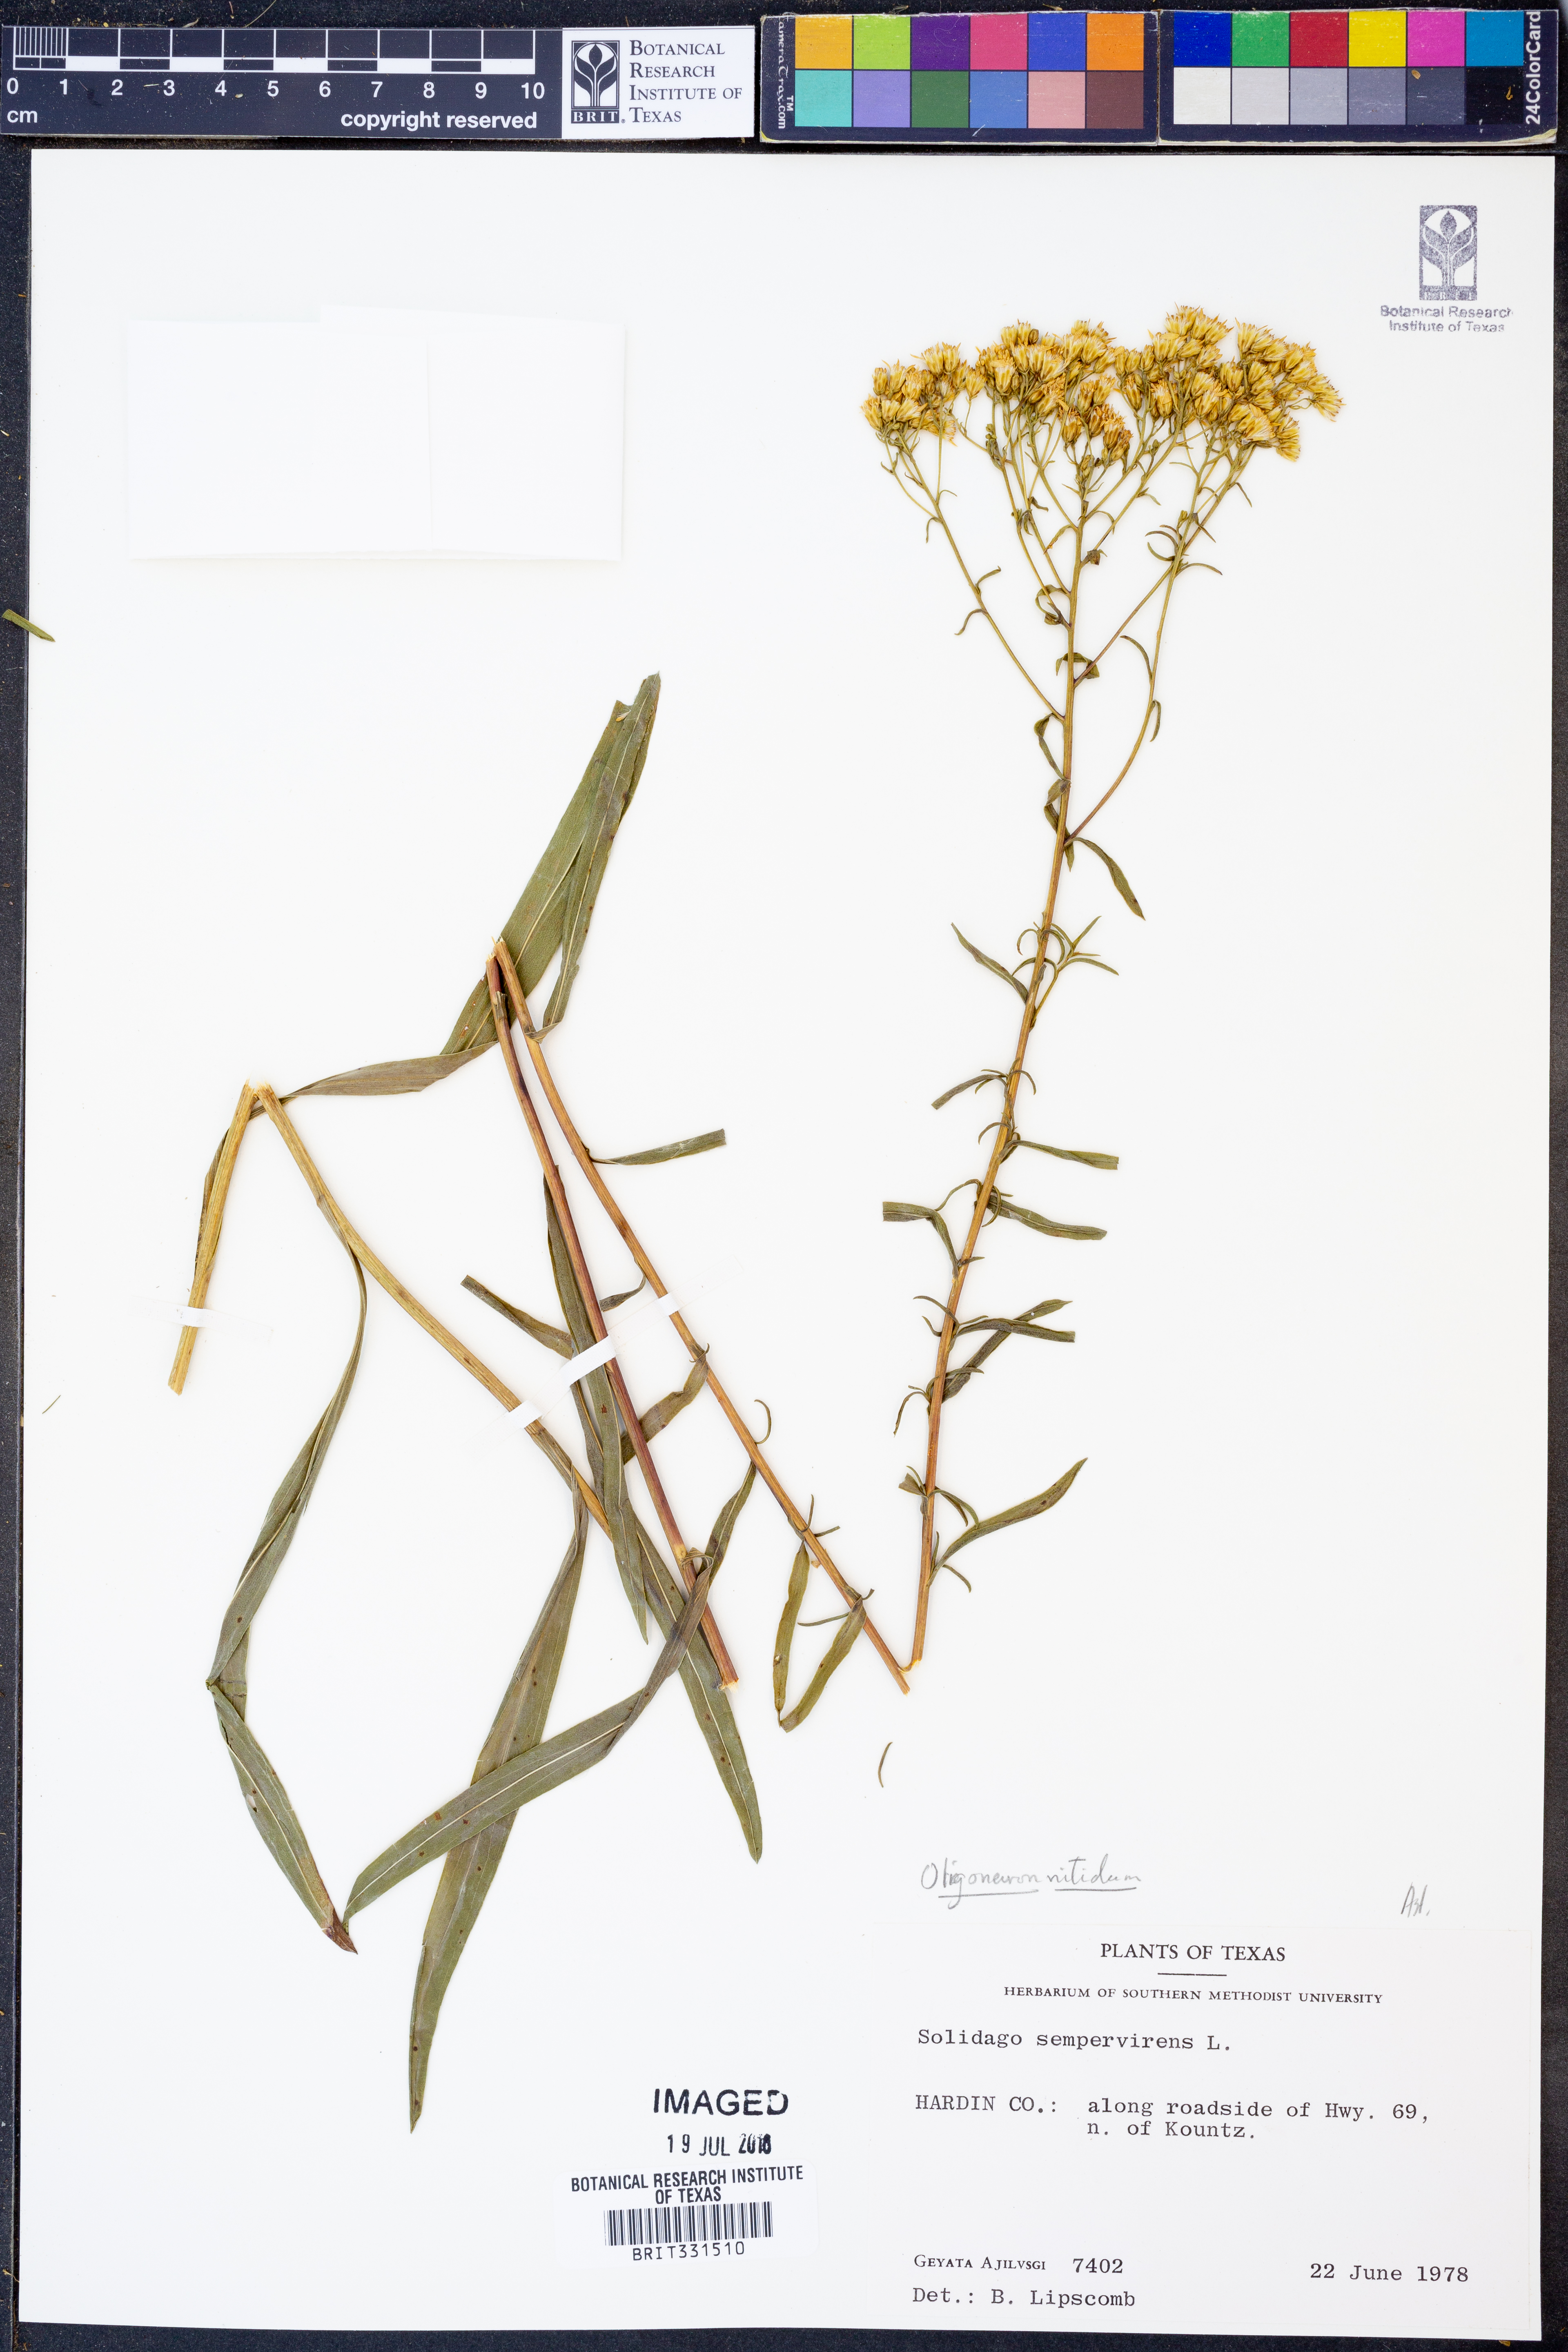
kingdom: Plantae
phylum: Tracheophyta
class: Magnoliopsida
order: Asterales
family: Asteraceae
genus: Solidago
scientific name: Solidago nitida
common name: Shiny goldenrod
